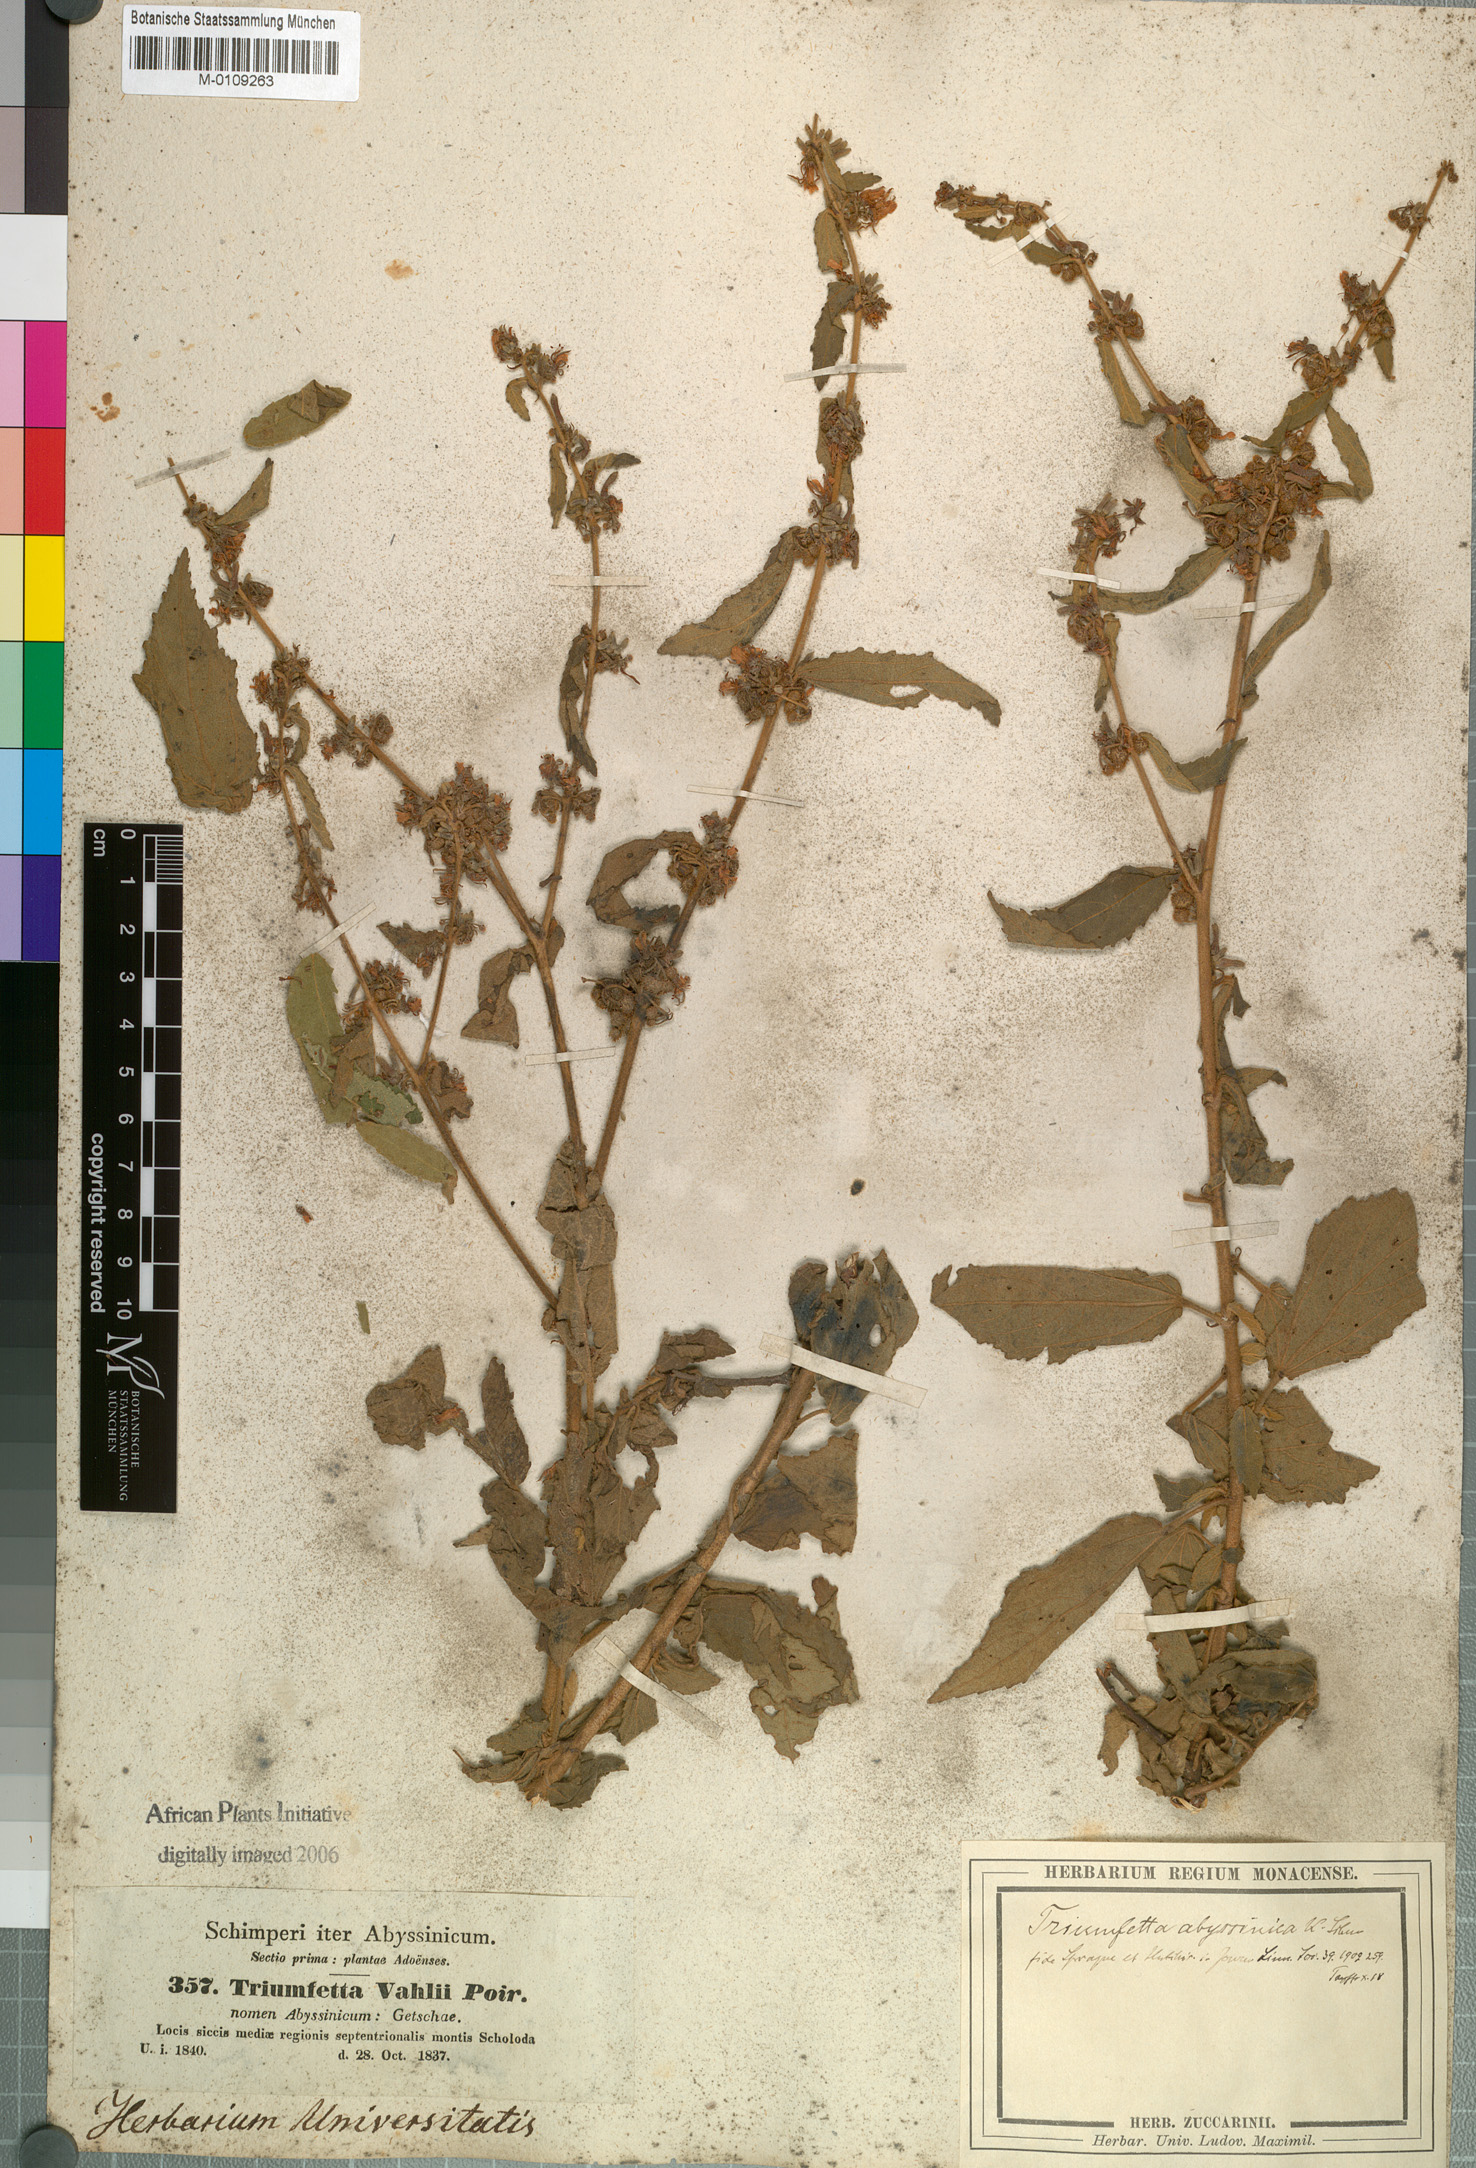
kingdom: Plantae
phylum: Tracheophyta
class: Magnoliopsida
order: Malvales
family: Malvaceae
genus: Triumfetta
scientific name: Triumfetta pilosa
